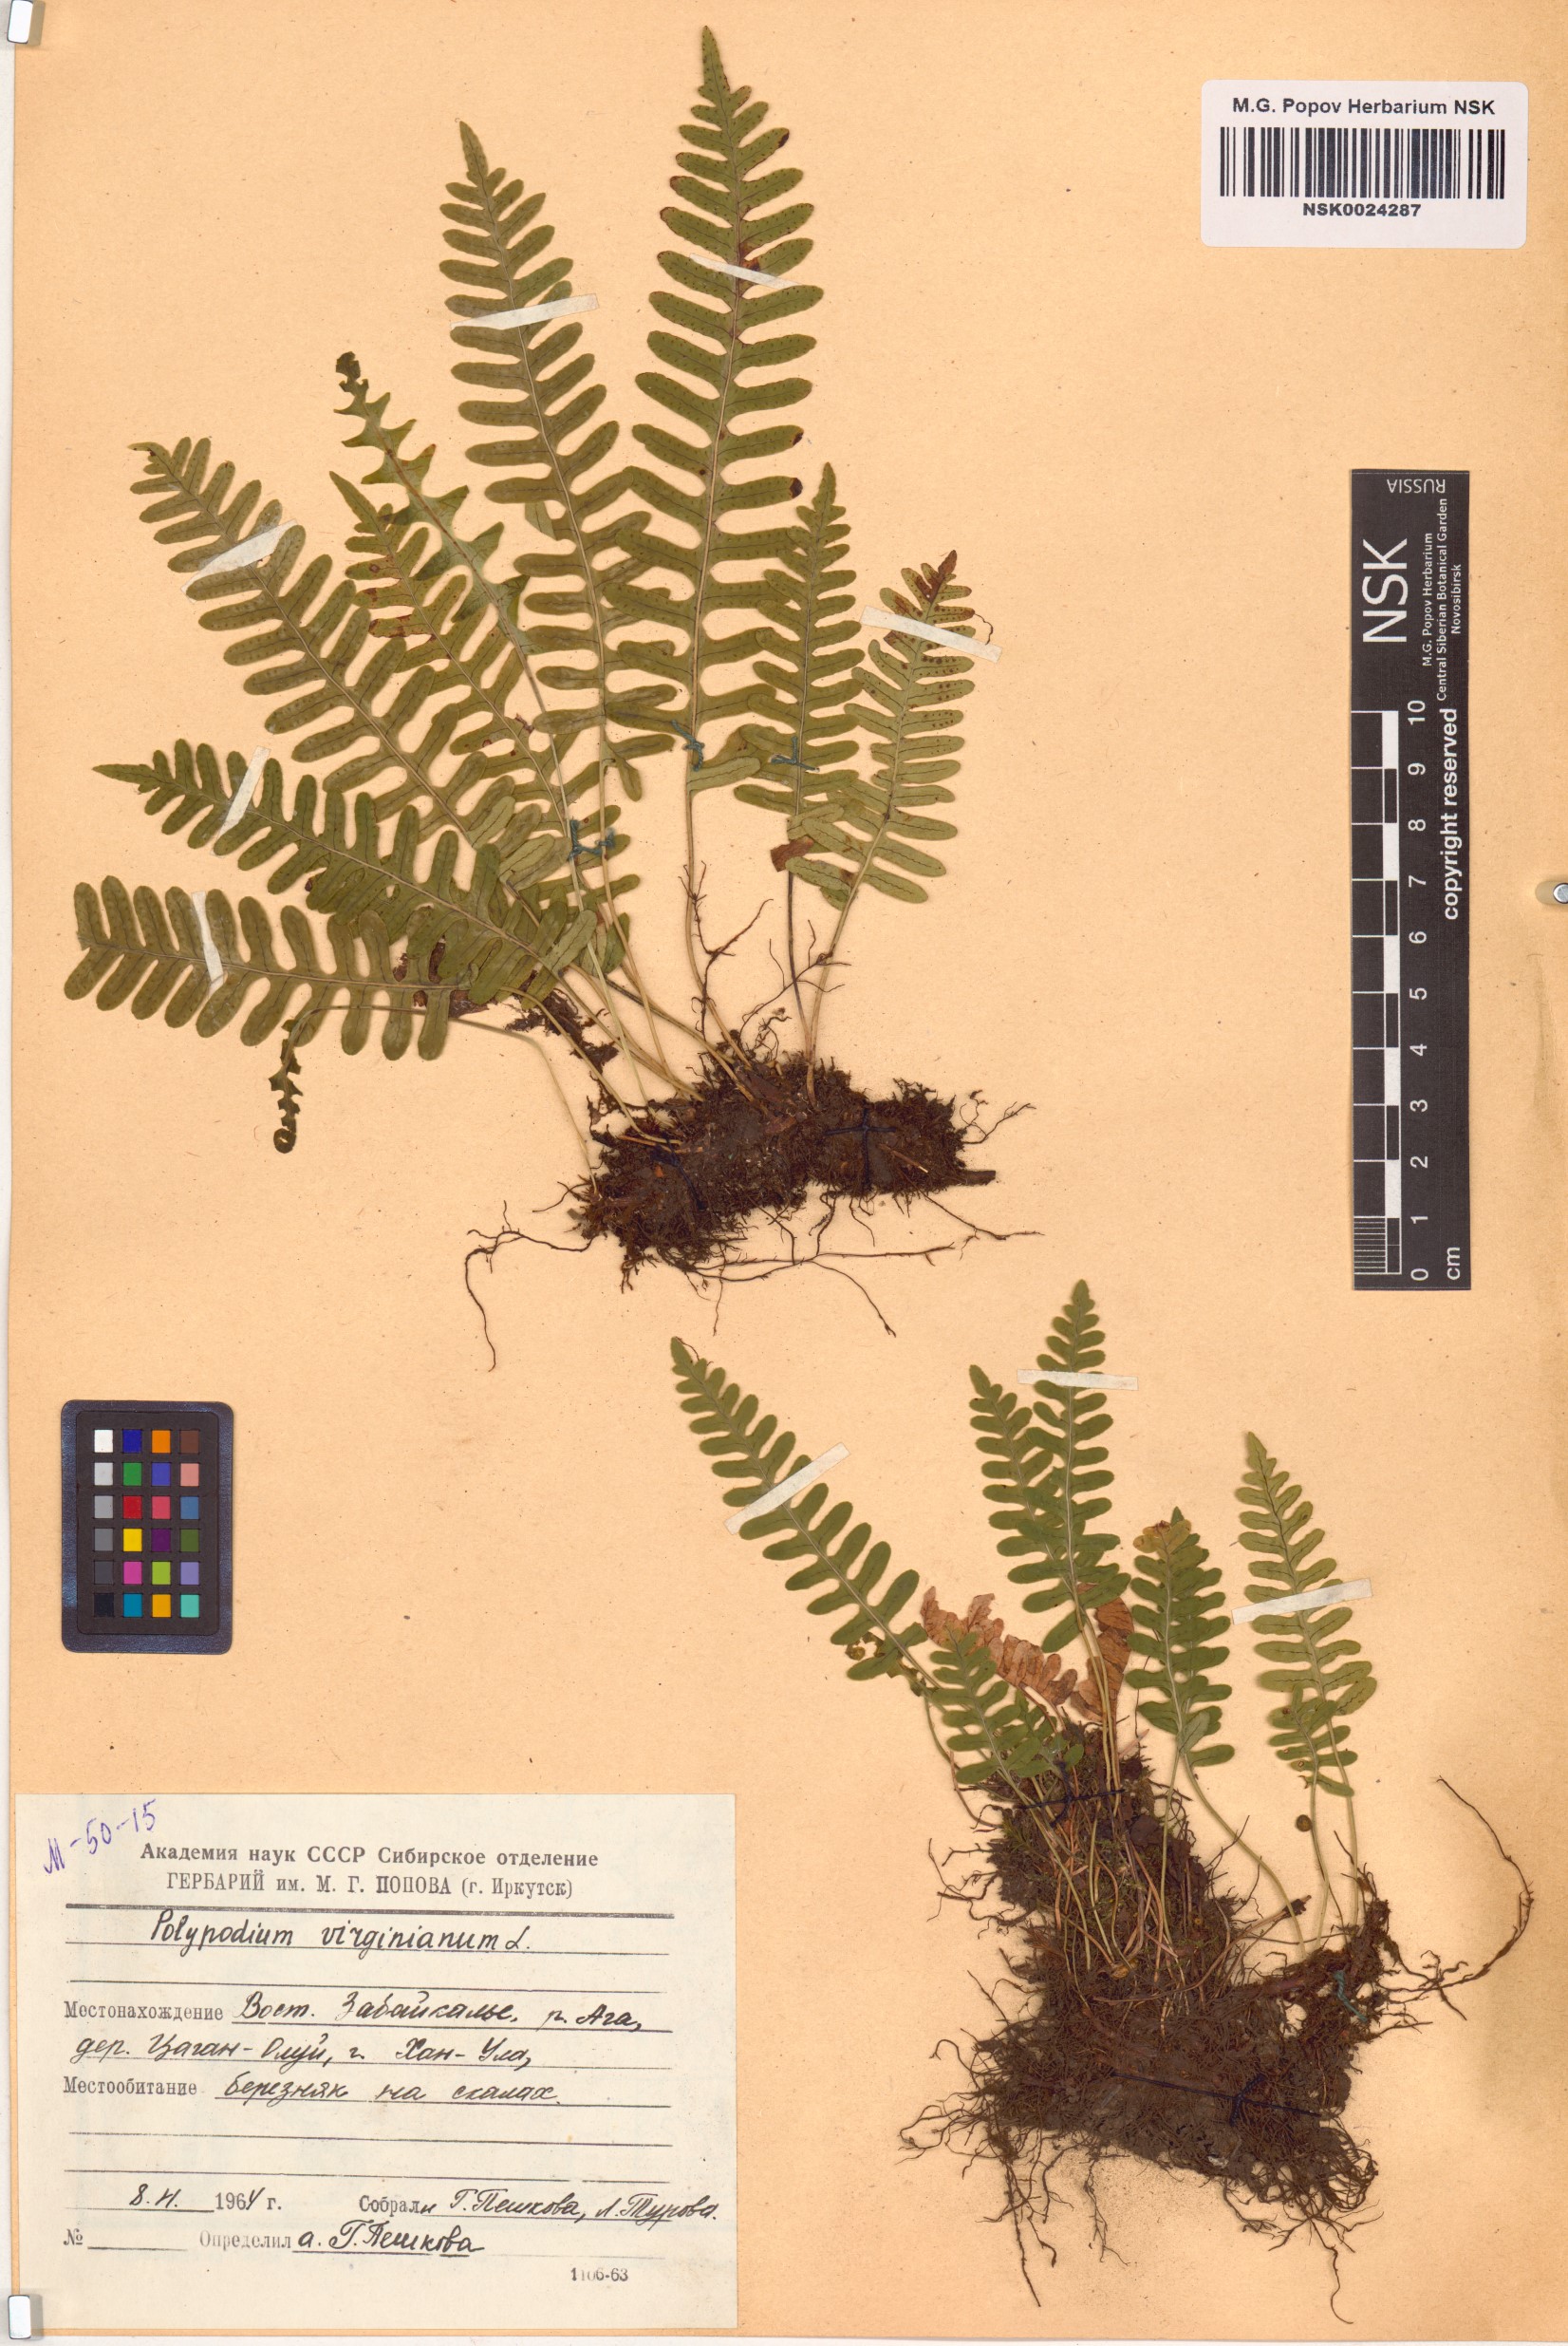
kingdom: Plantae
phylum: Tracheophyta
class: Polypodiopsida
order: Polypodiales
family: Polypodiaceae
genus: Polypodium
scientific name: Polypodium virginianum
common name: American wall fern
